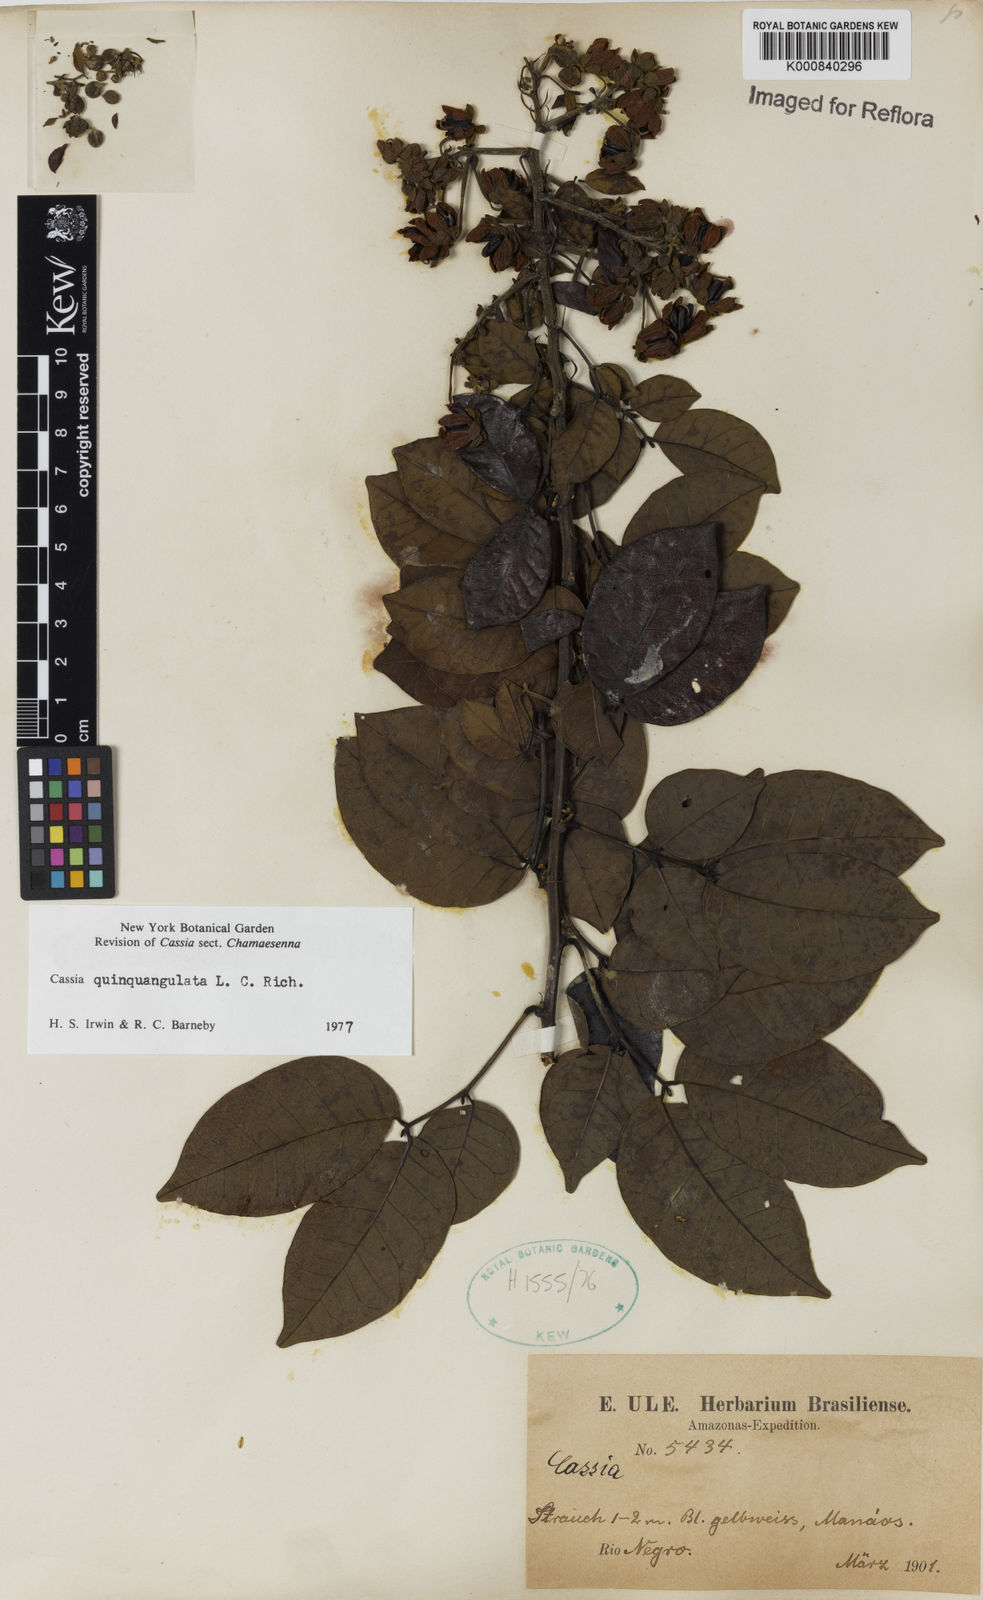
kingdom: Plantae
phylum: Tracheophyta
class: Magnoliopsida
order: Fabales
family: Fabaceae
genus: Senna
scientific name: Senna
